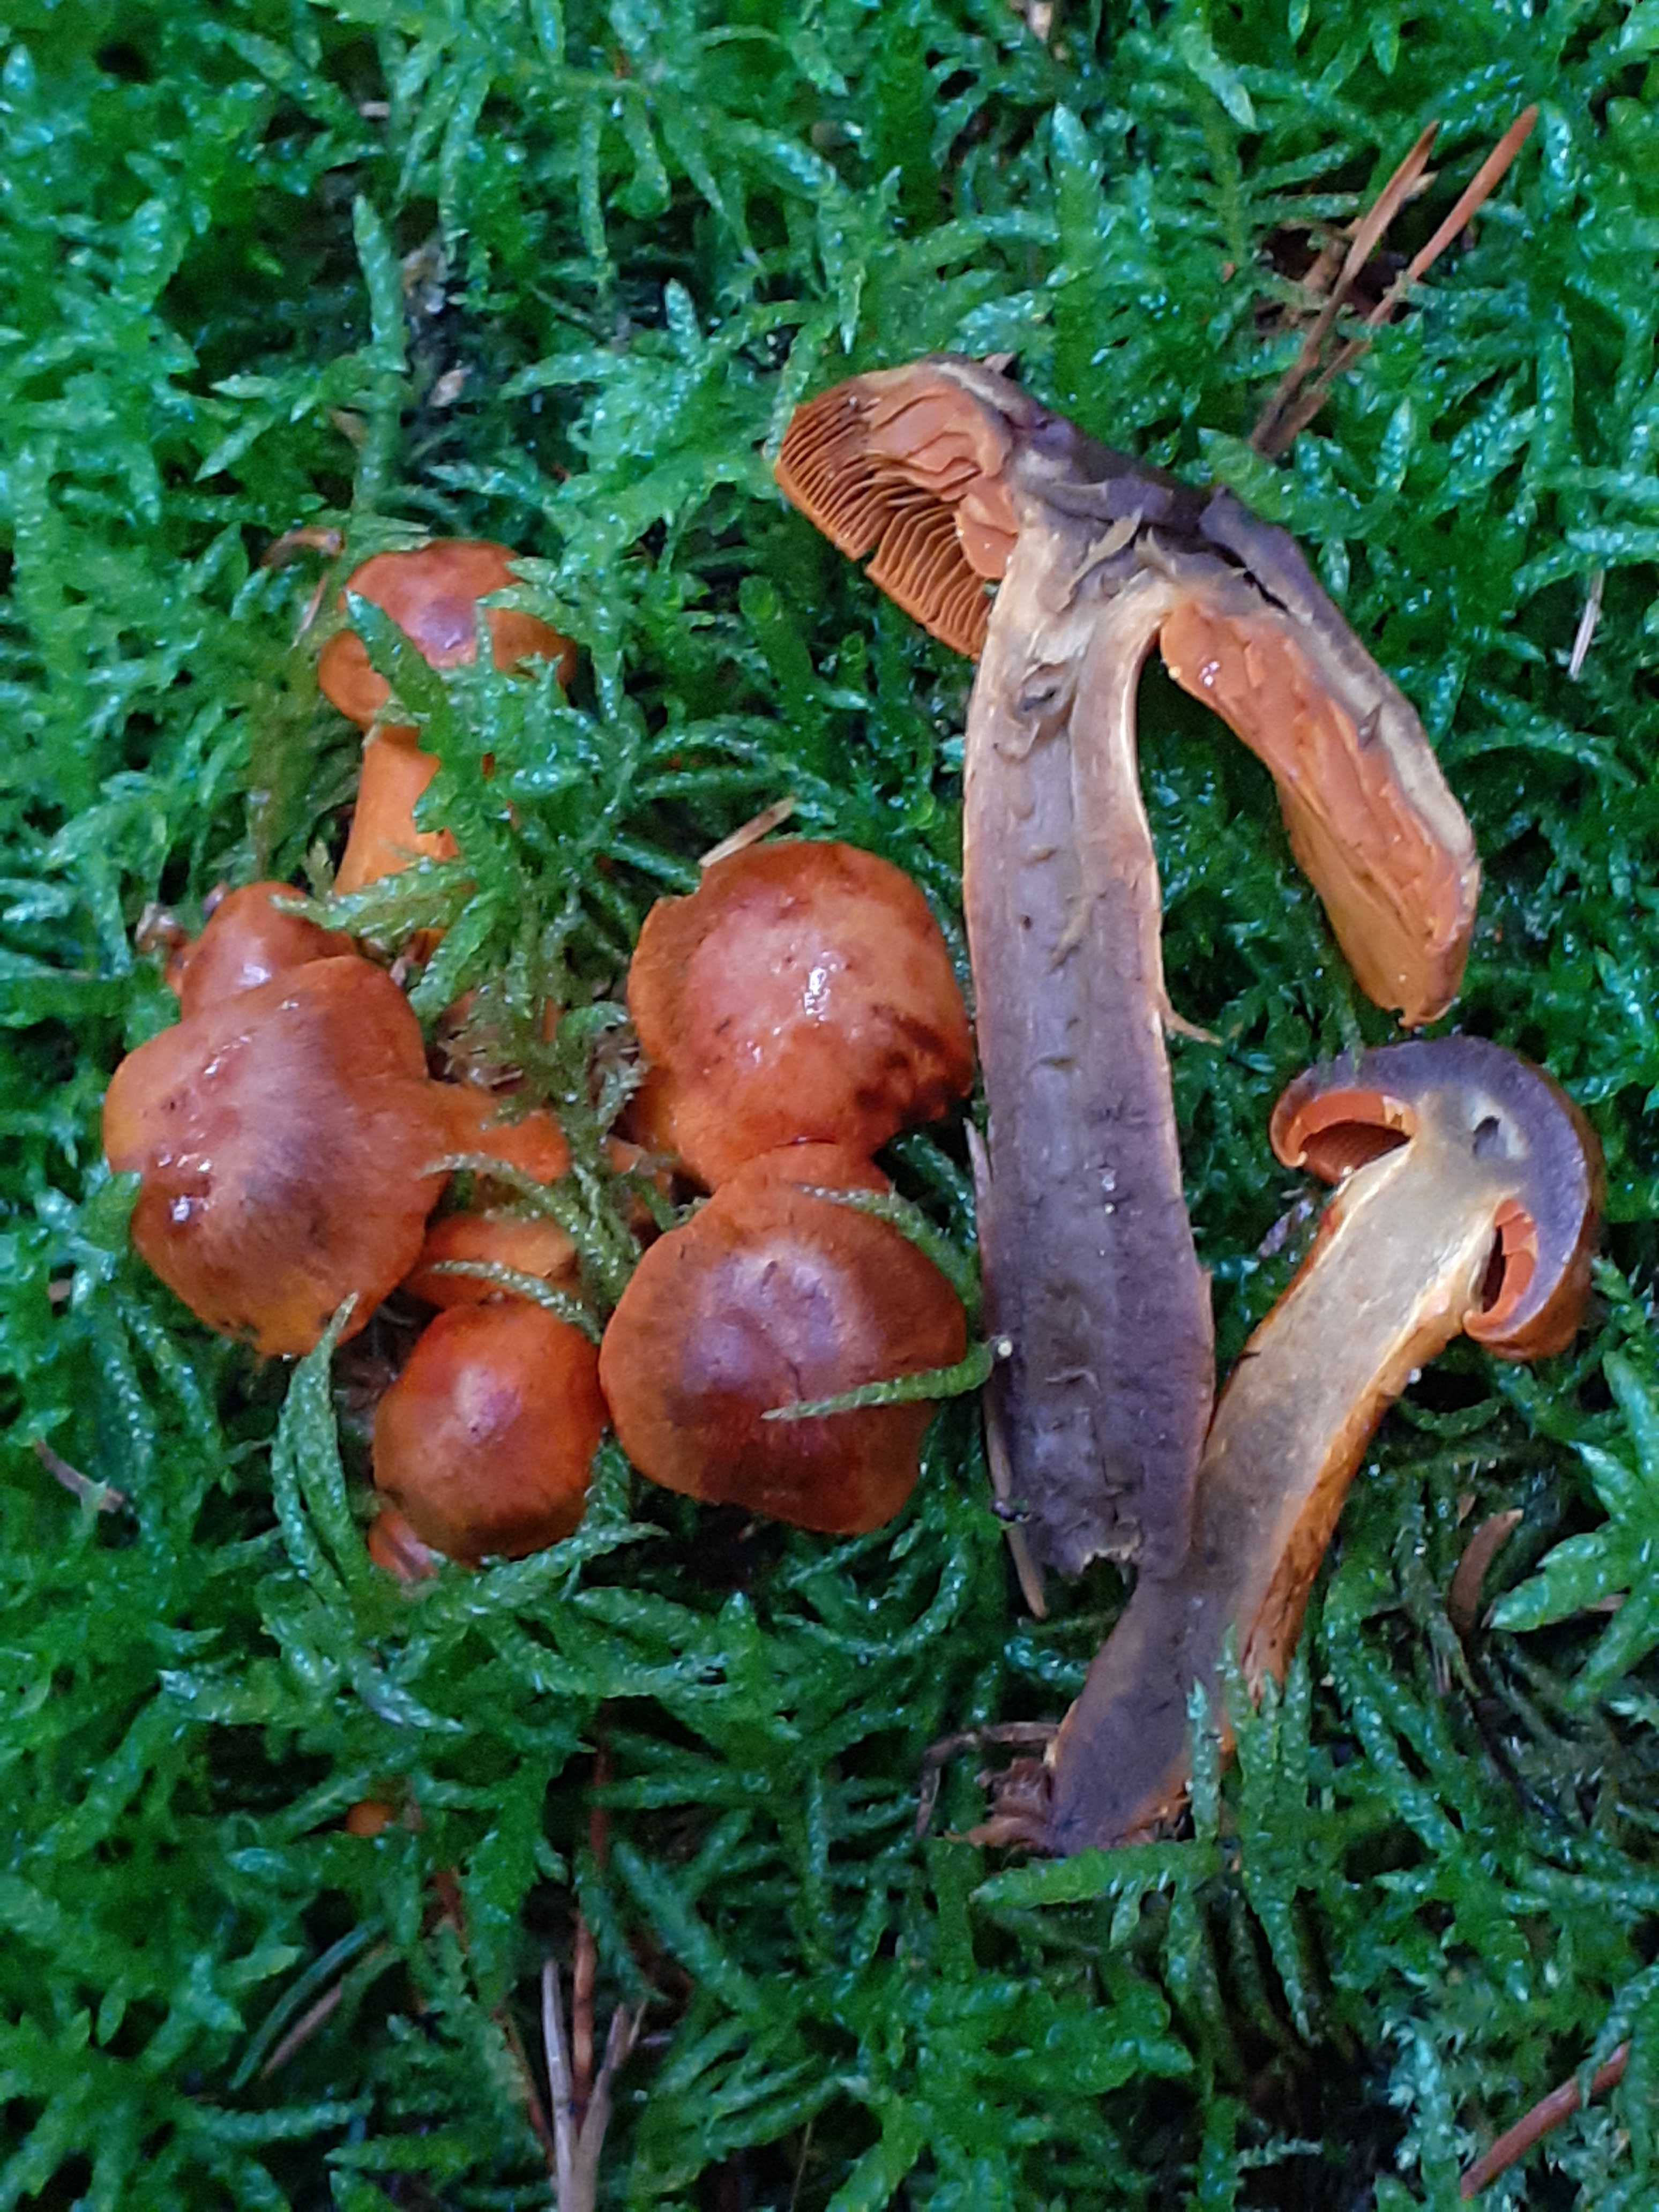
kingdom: Fungi
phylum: Basidiomycota
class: Agaricomycetes
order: Agaricales
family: Cortinariaceae
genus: Cortinarius
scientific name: Cortinarius malicorius
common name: grønkødet slørhat
